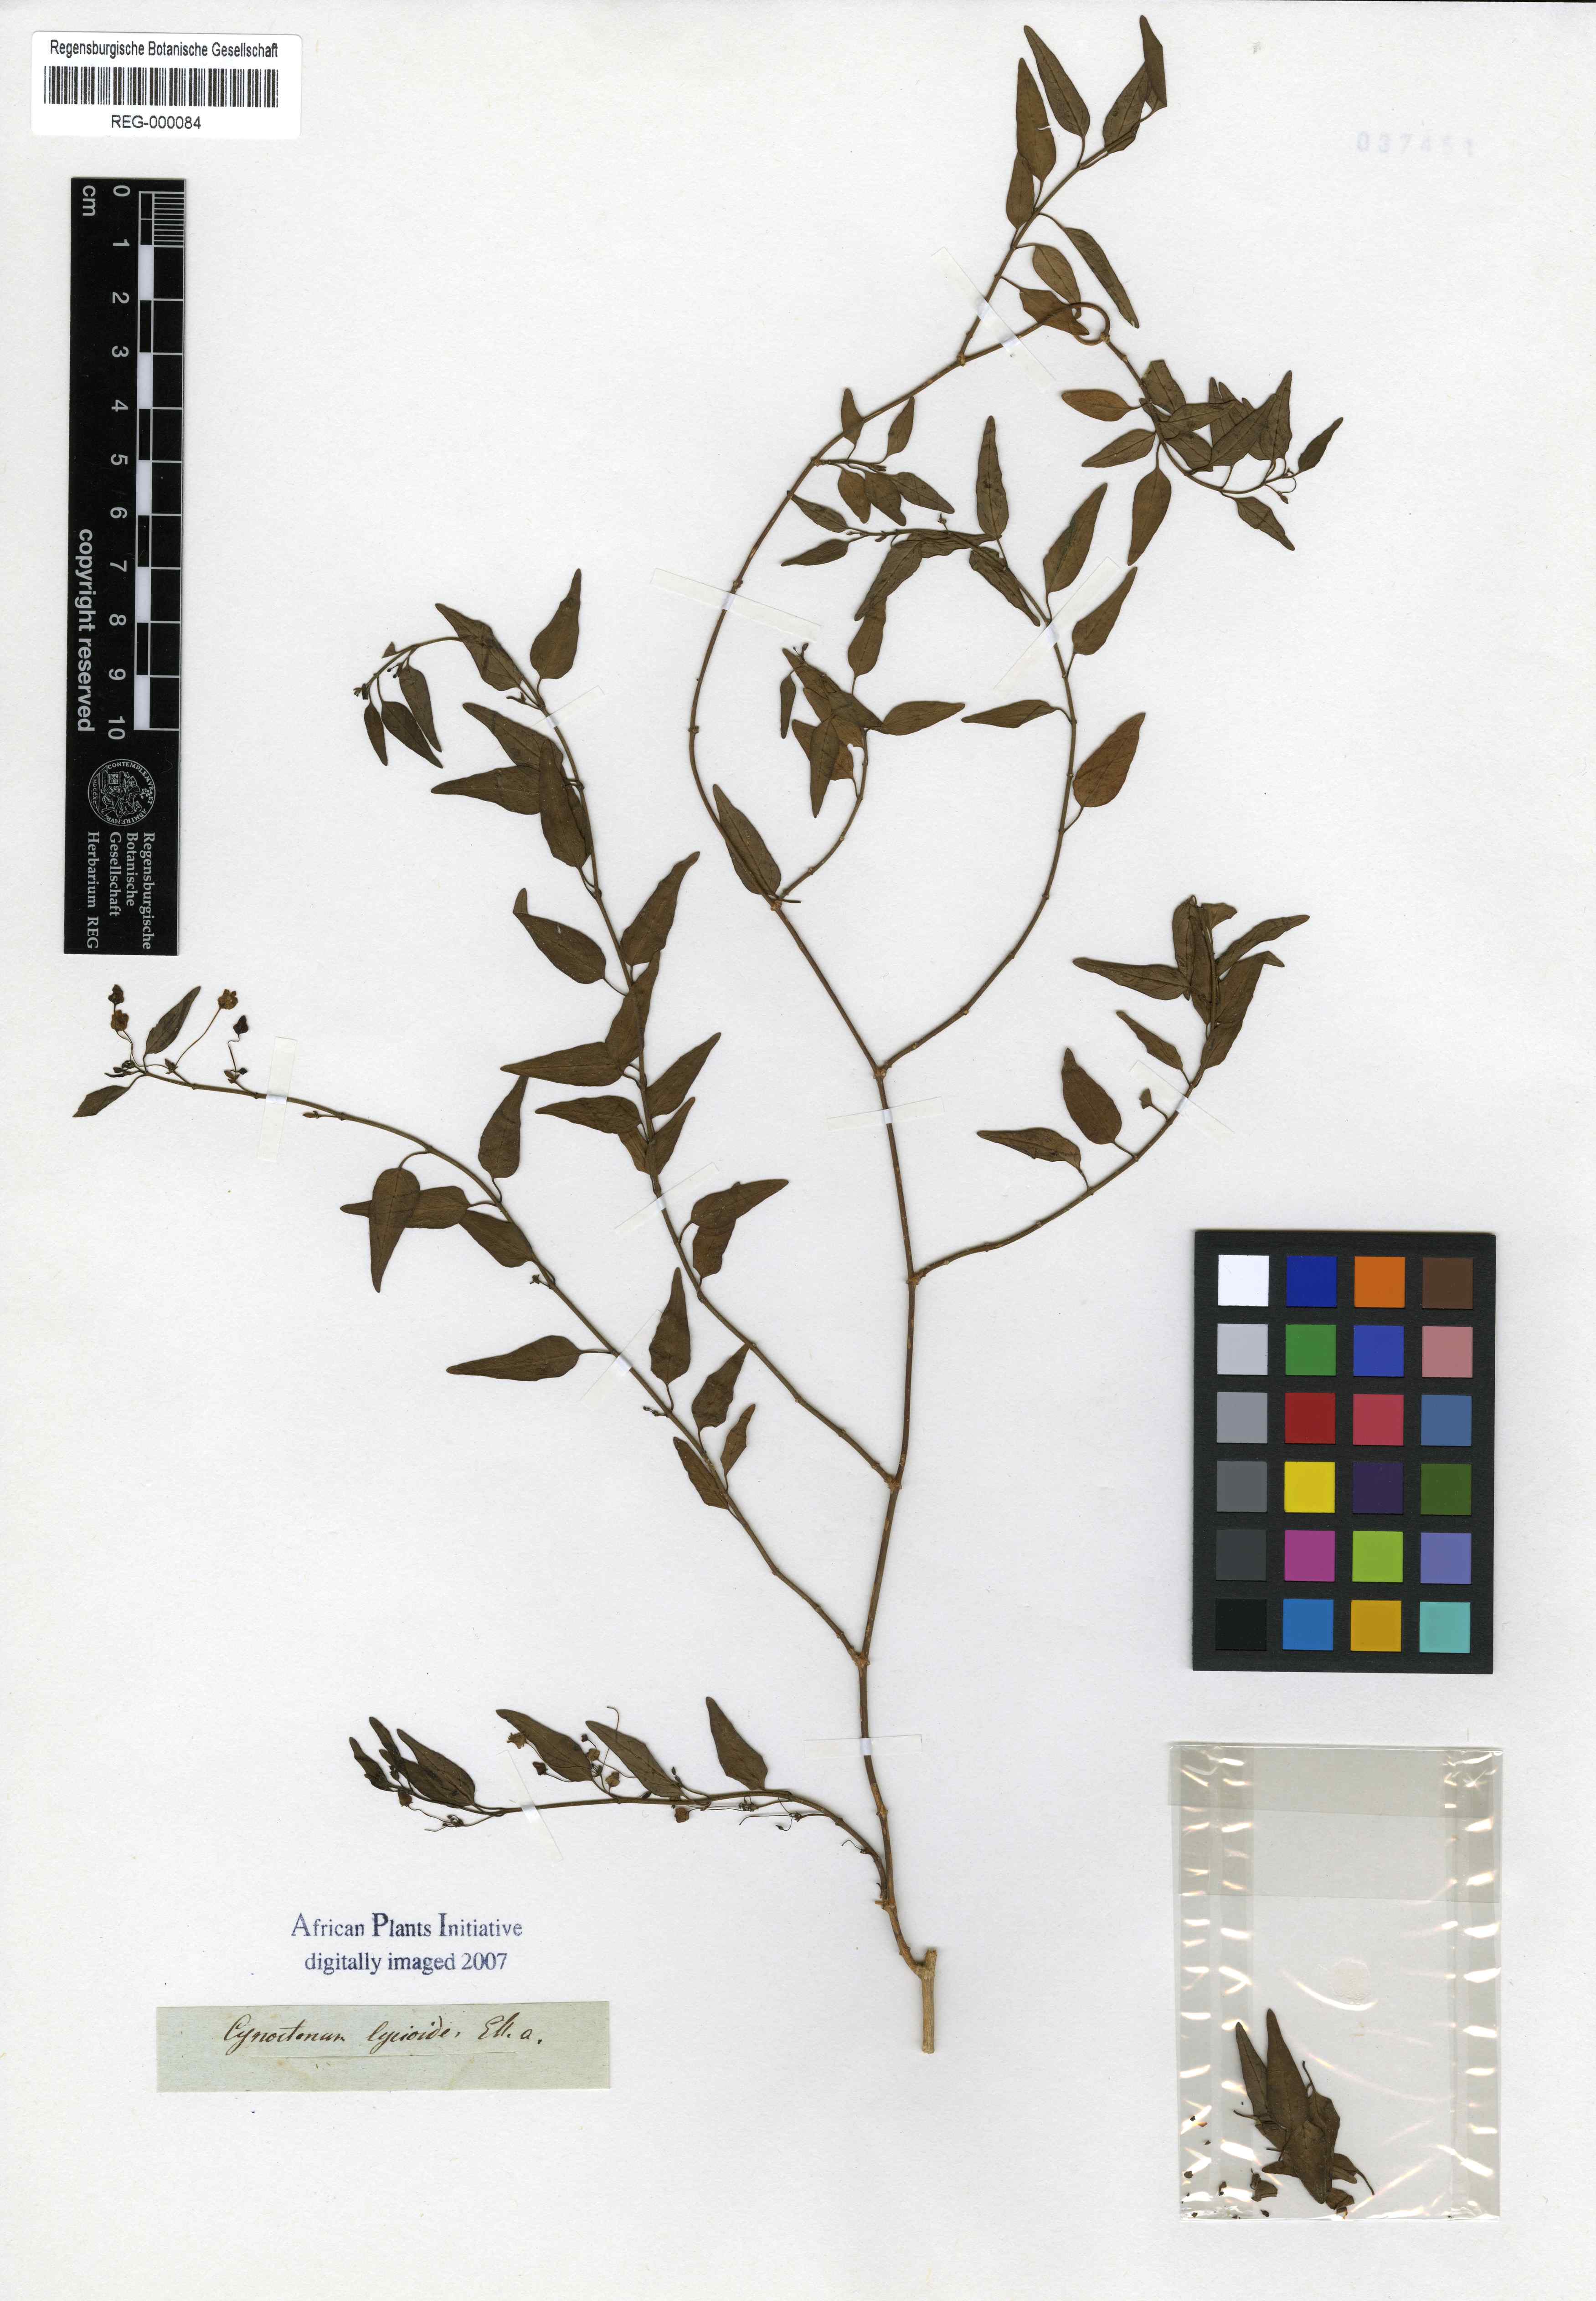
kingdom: Plantae
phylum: Tracheophyta
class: Magnoliopsida
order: Gentianales
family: Apocynaceae
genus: Vincetoxicum
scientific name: Vincetoxicum lycioides
